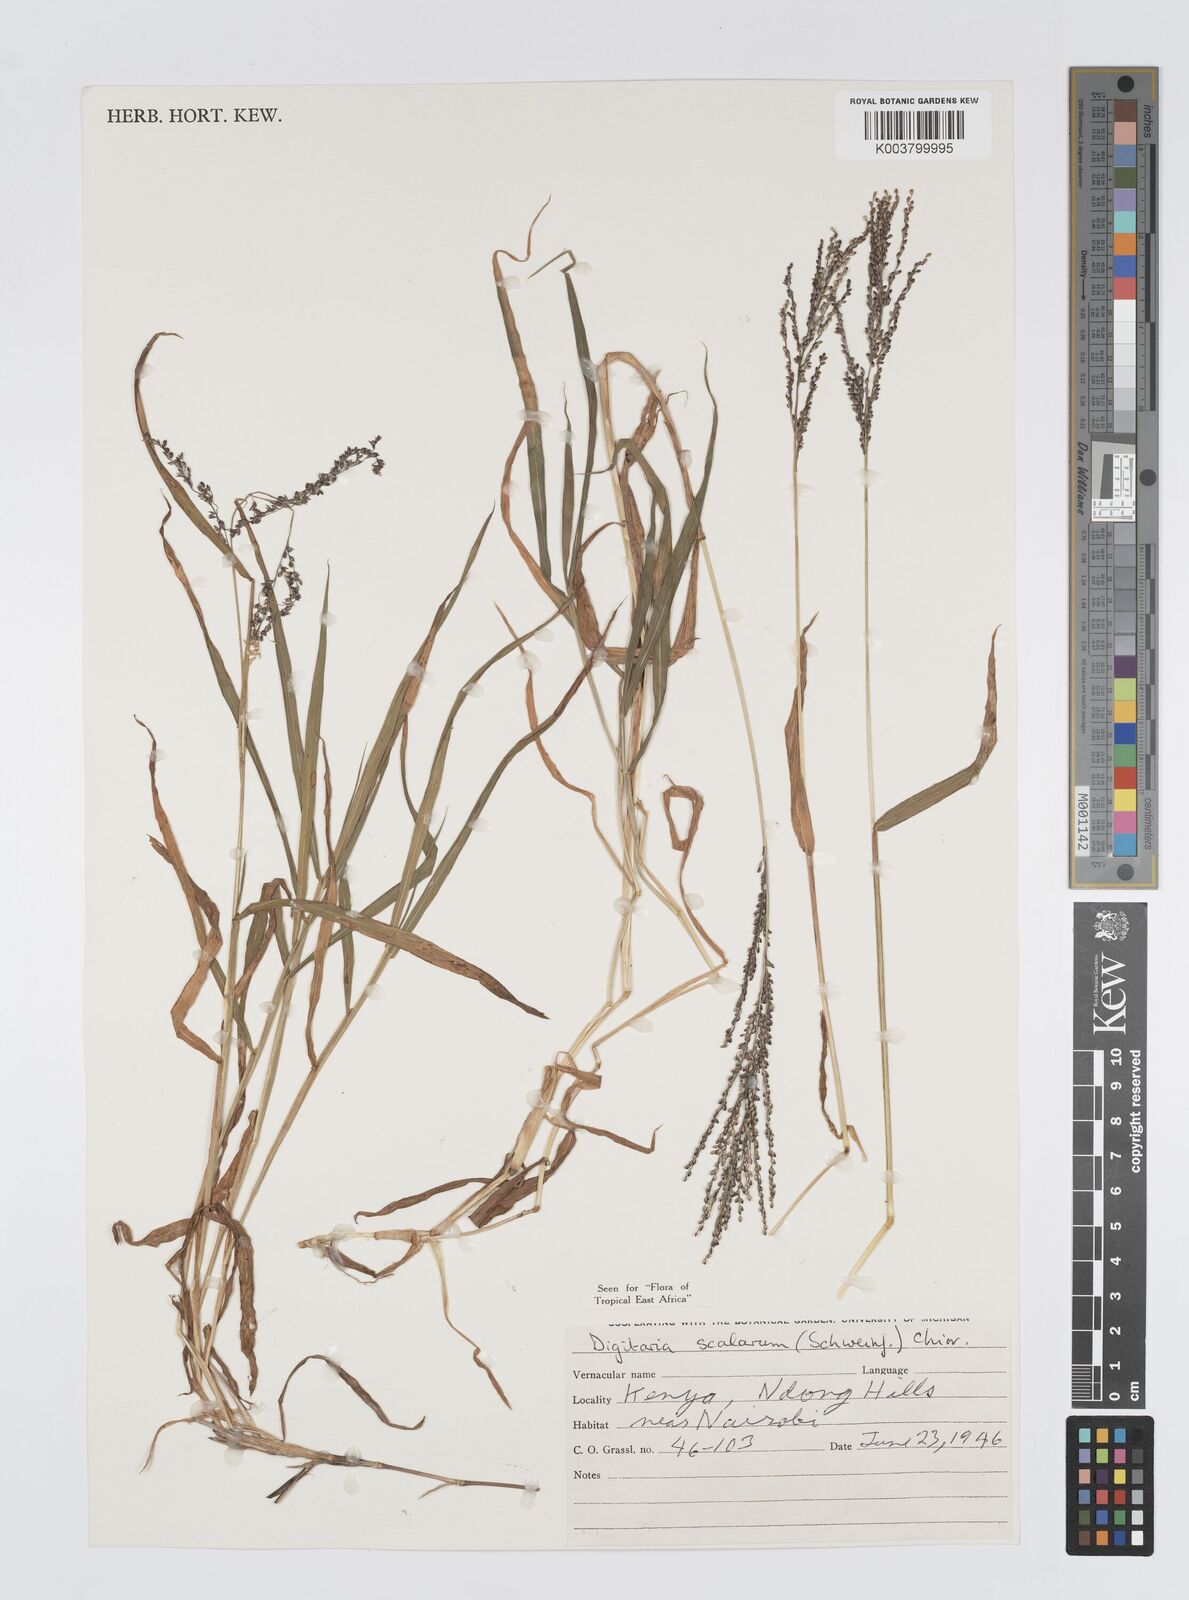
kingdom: Plantae
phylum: Tracheophyta
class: Liliopsida
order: Poales
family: Poaceae
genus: Digitaria
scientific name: Digitaria abyssinica
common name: African couchgrass
